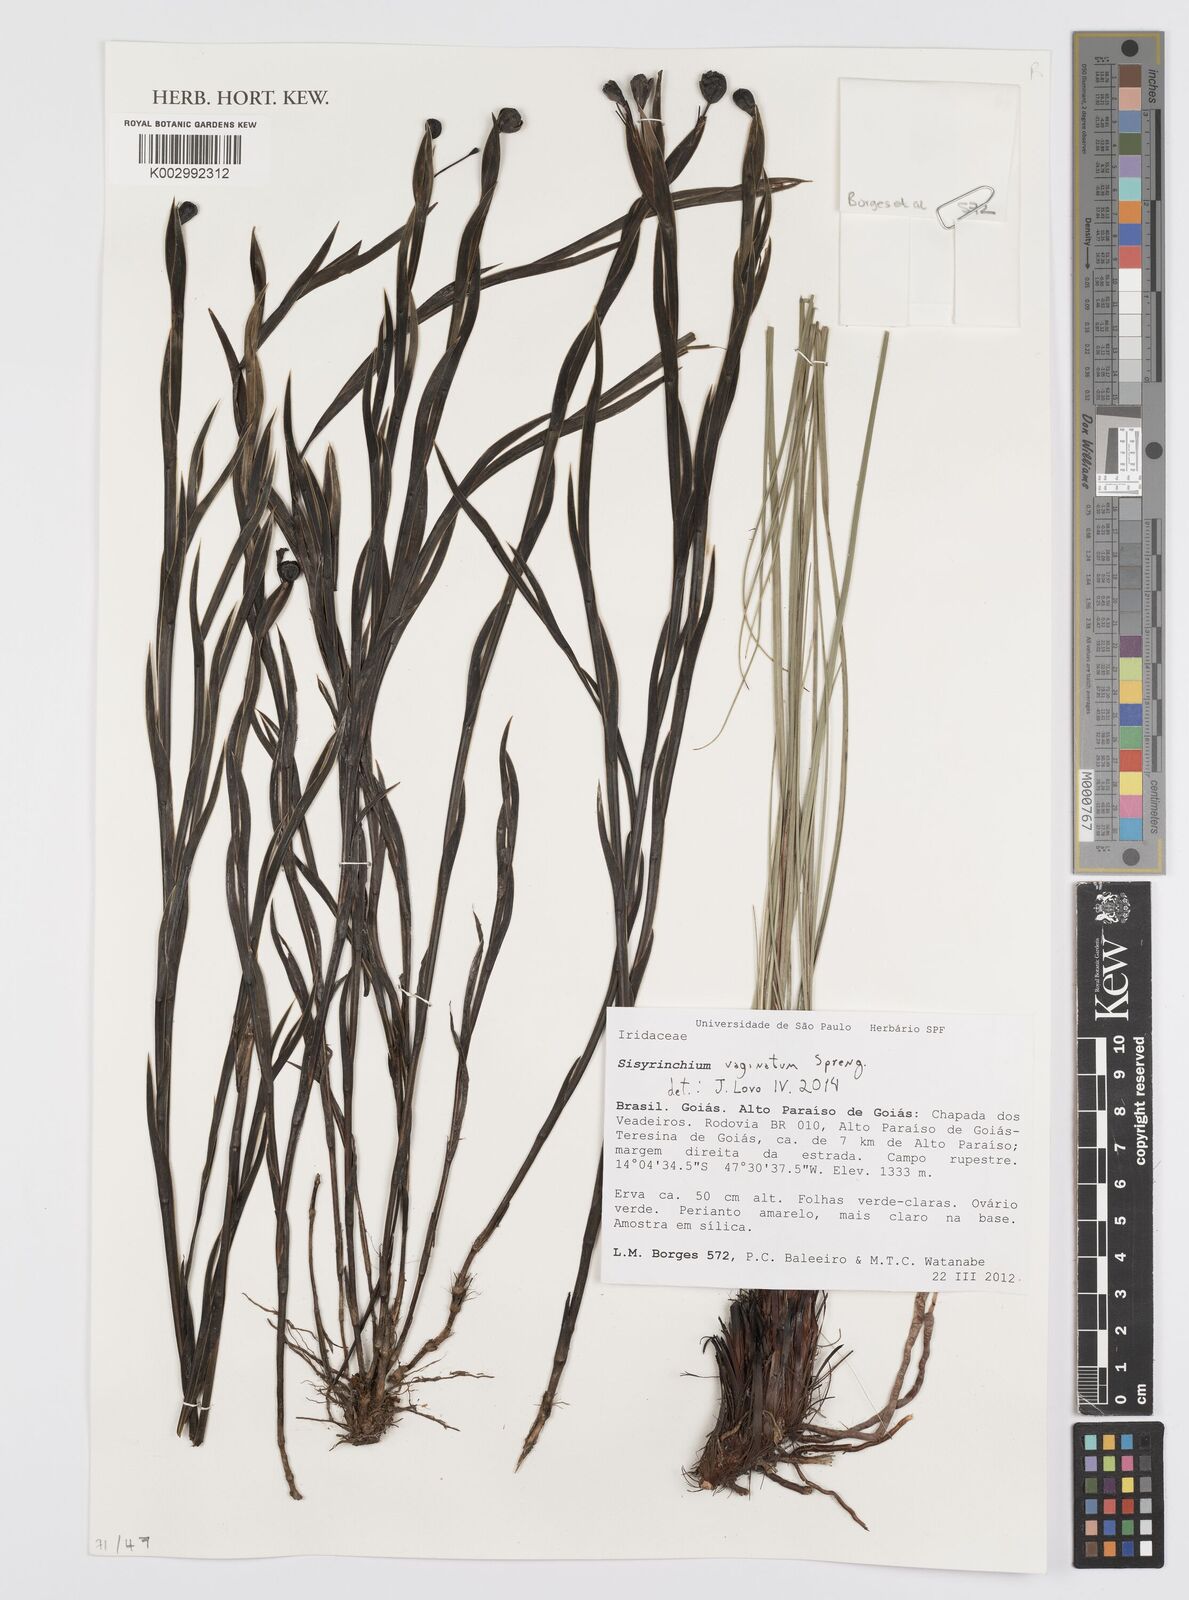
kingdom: Plantae
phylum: Tracheophyta
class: Liliopsida
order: Asparagales
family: Iridaceae
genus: Sisyrinchium
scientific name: Sisyrinchium vaginatum
